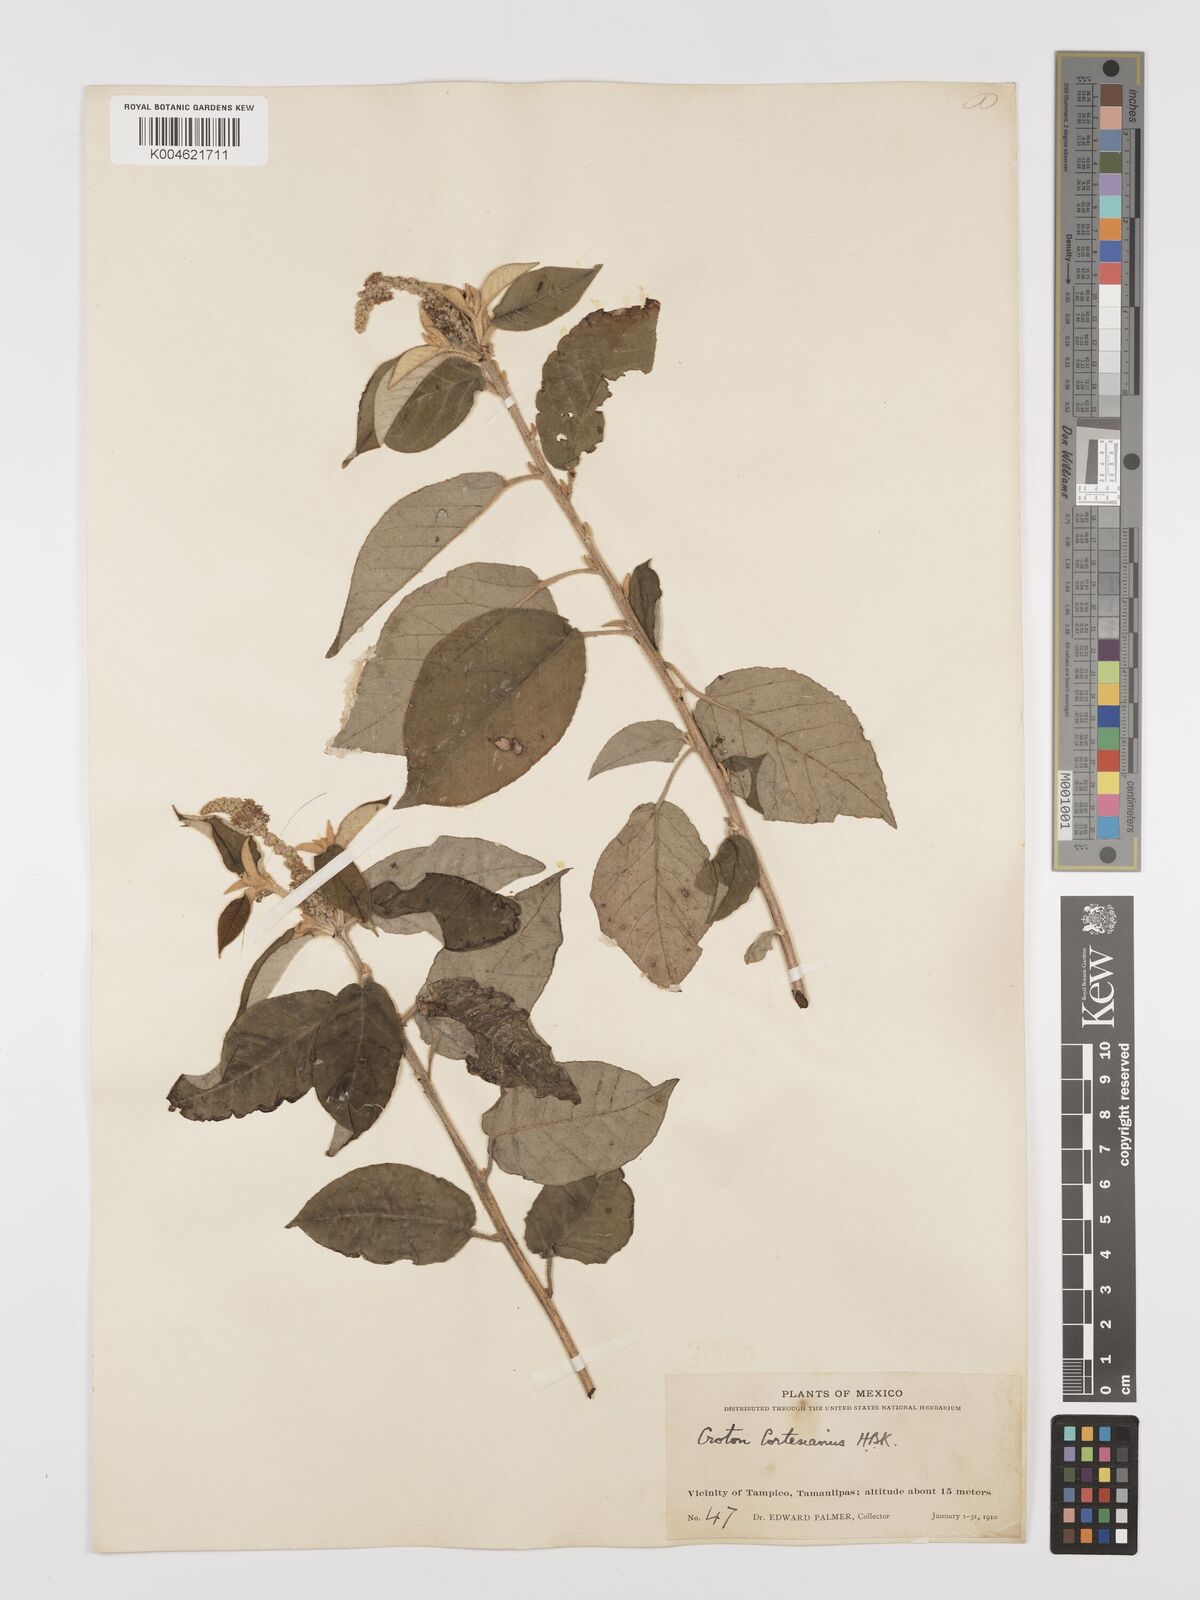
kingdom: Plantae
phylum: Tracheophyta
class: Magnoliopsida
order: Malpighiales
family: Euphorbiaceae
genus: Croton
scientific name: Croton cortesianus
